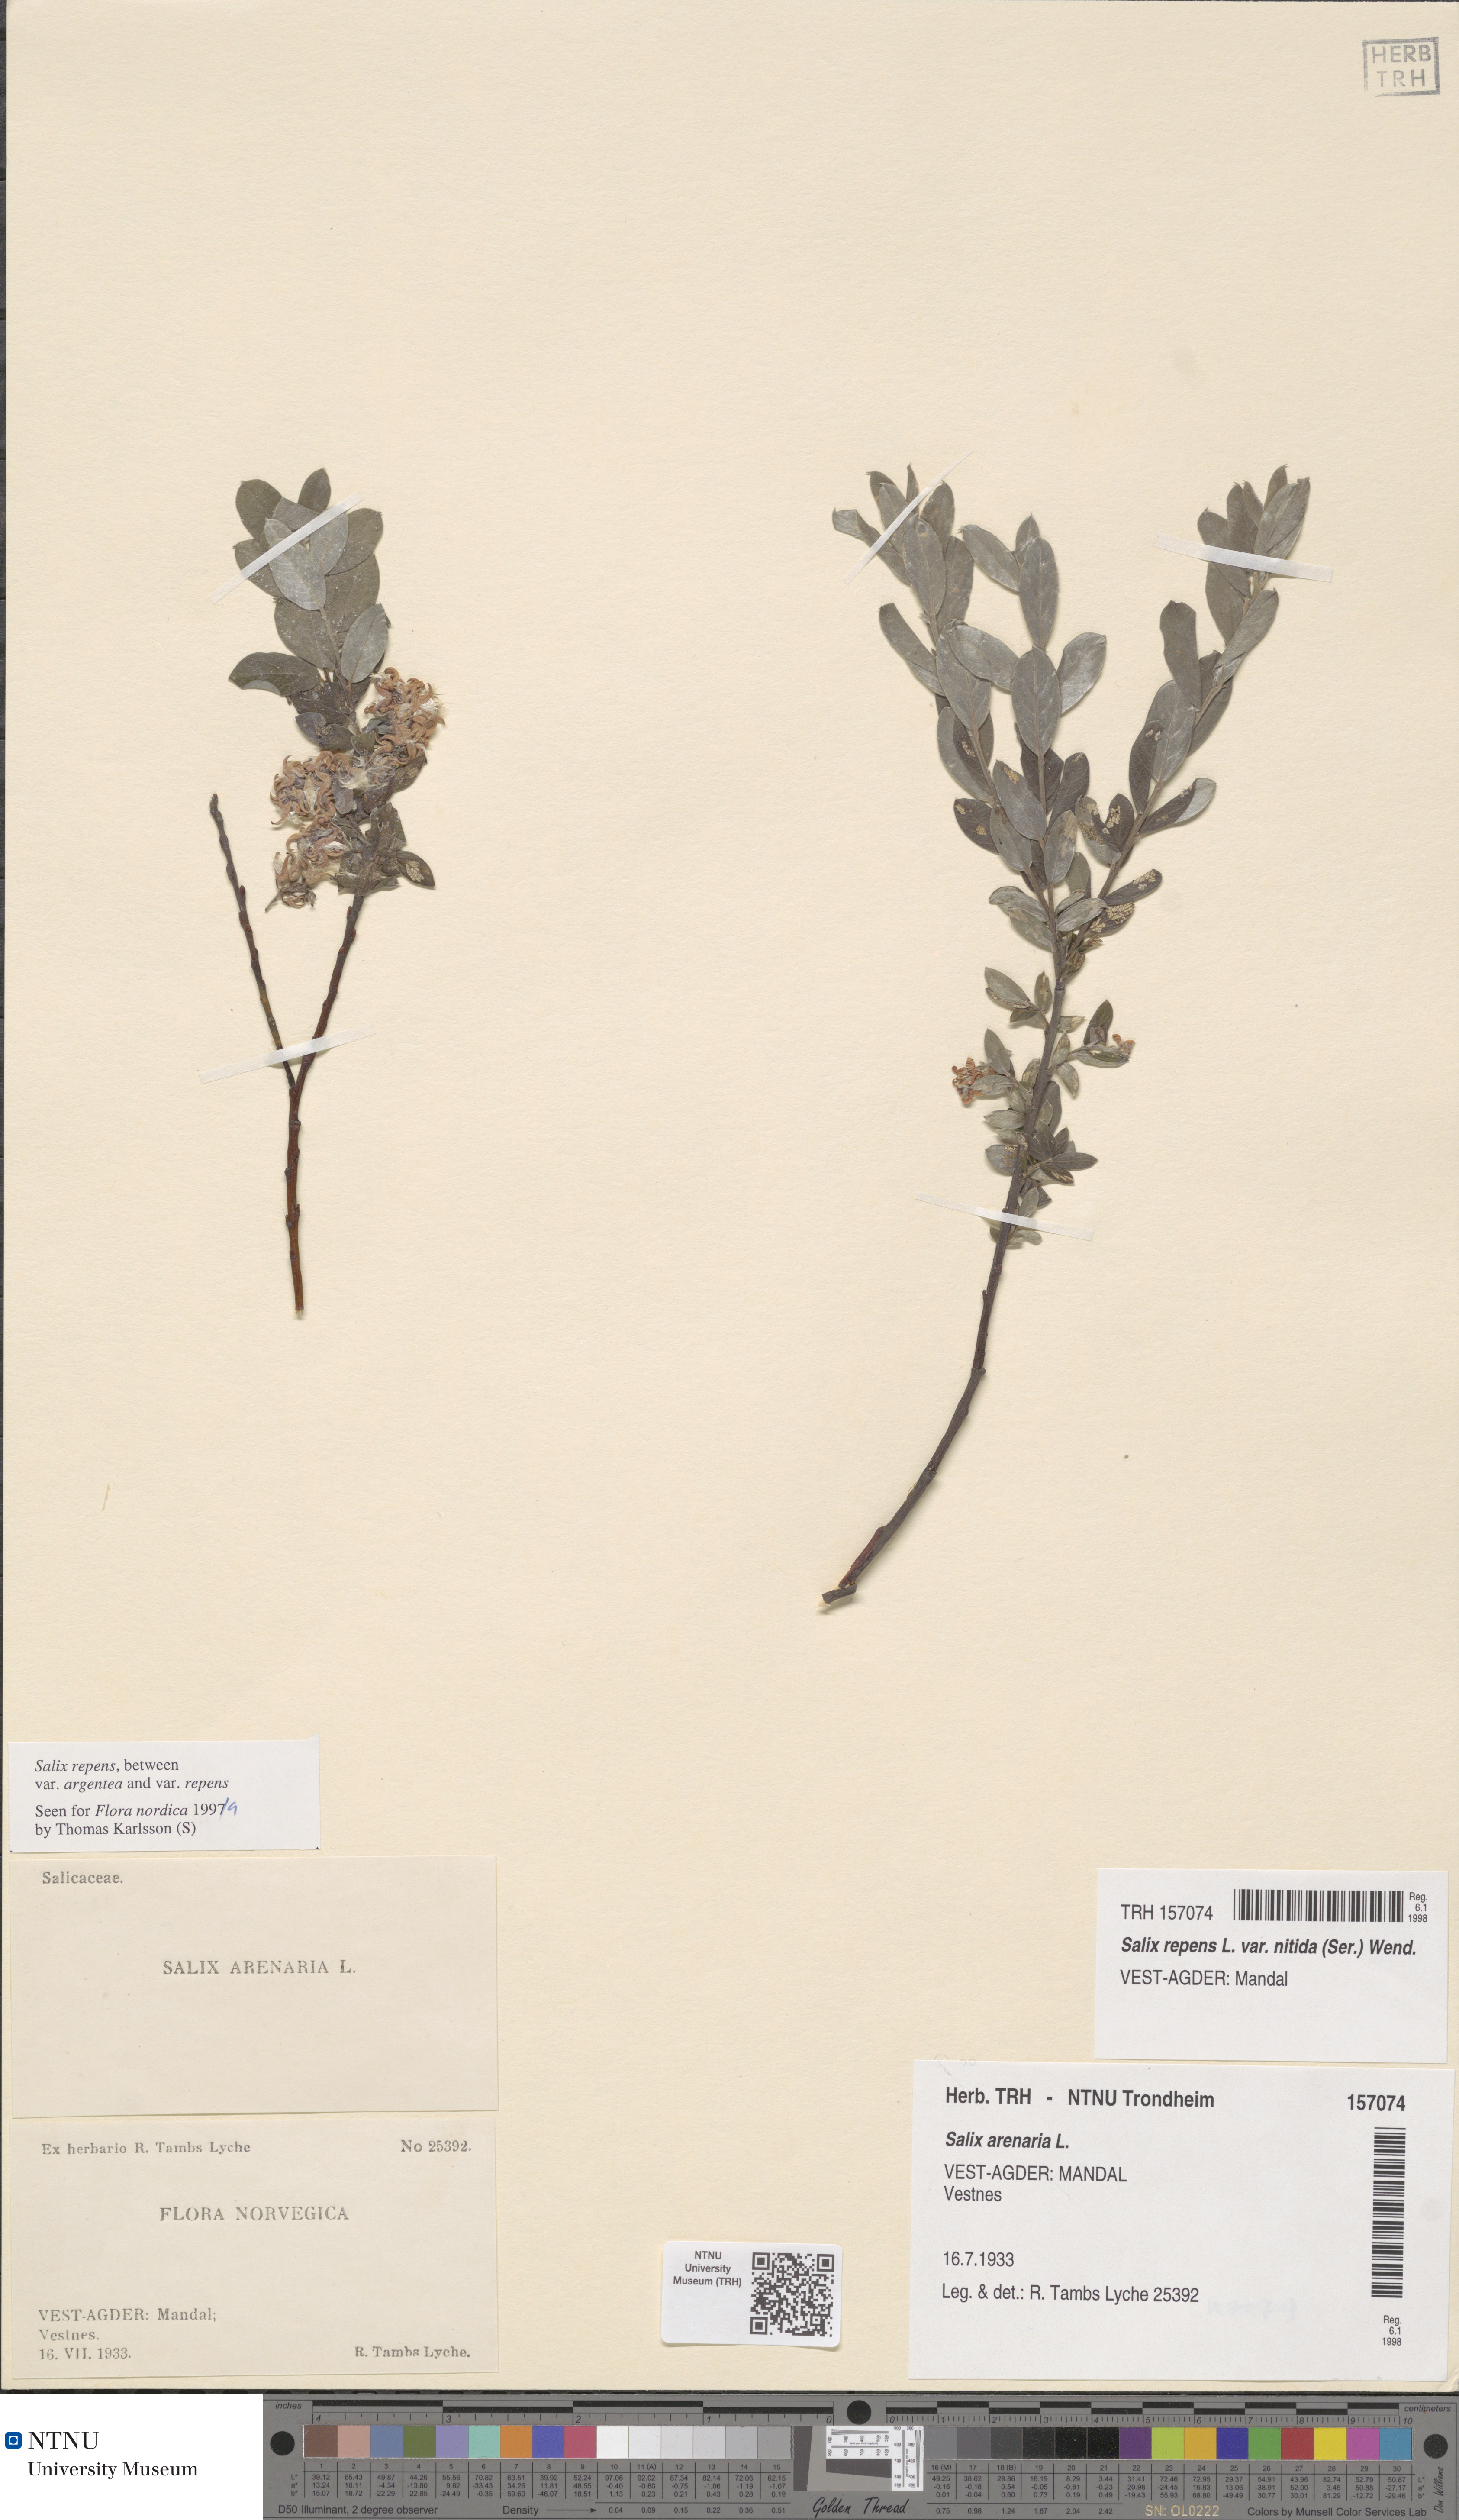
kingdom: Plantae
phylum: Tracheophyta
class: Magnoliopsida
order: Malpighiales
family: Salicaceae
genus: Salix
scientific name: Salix repens
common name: Creeping willow
